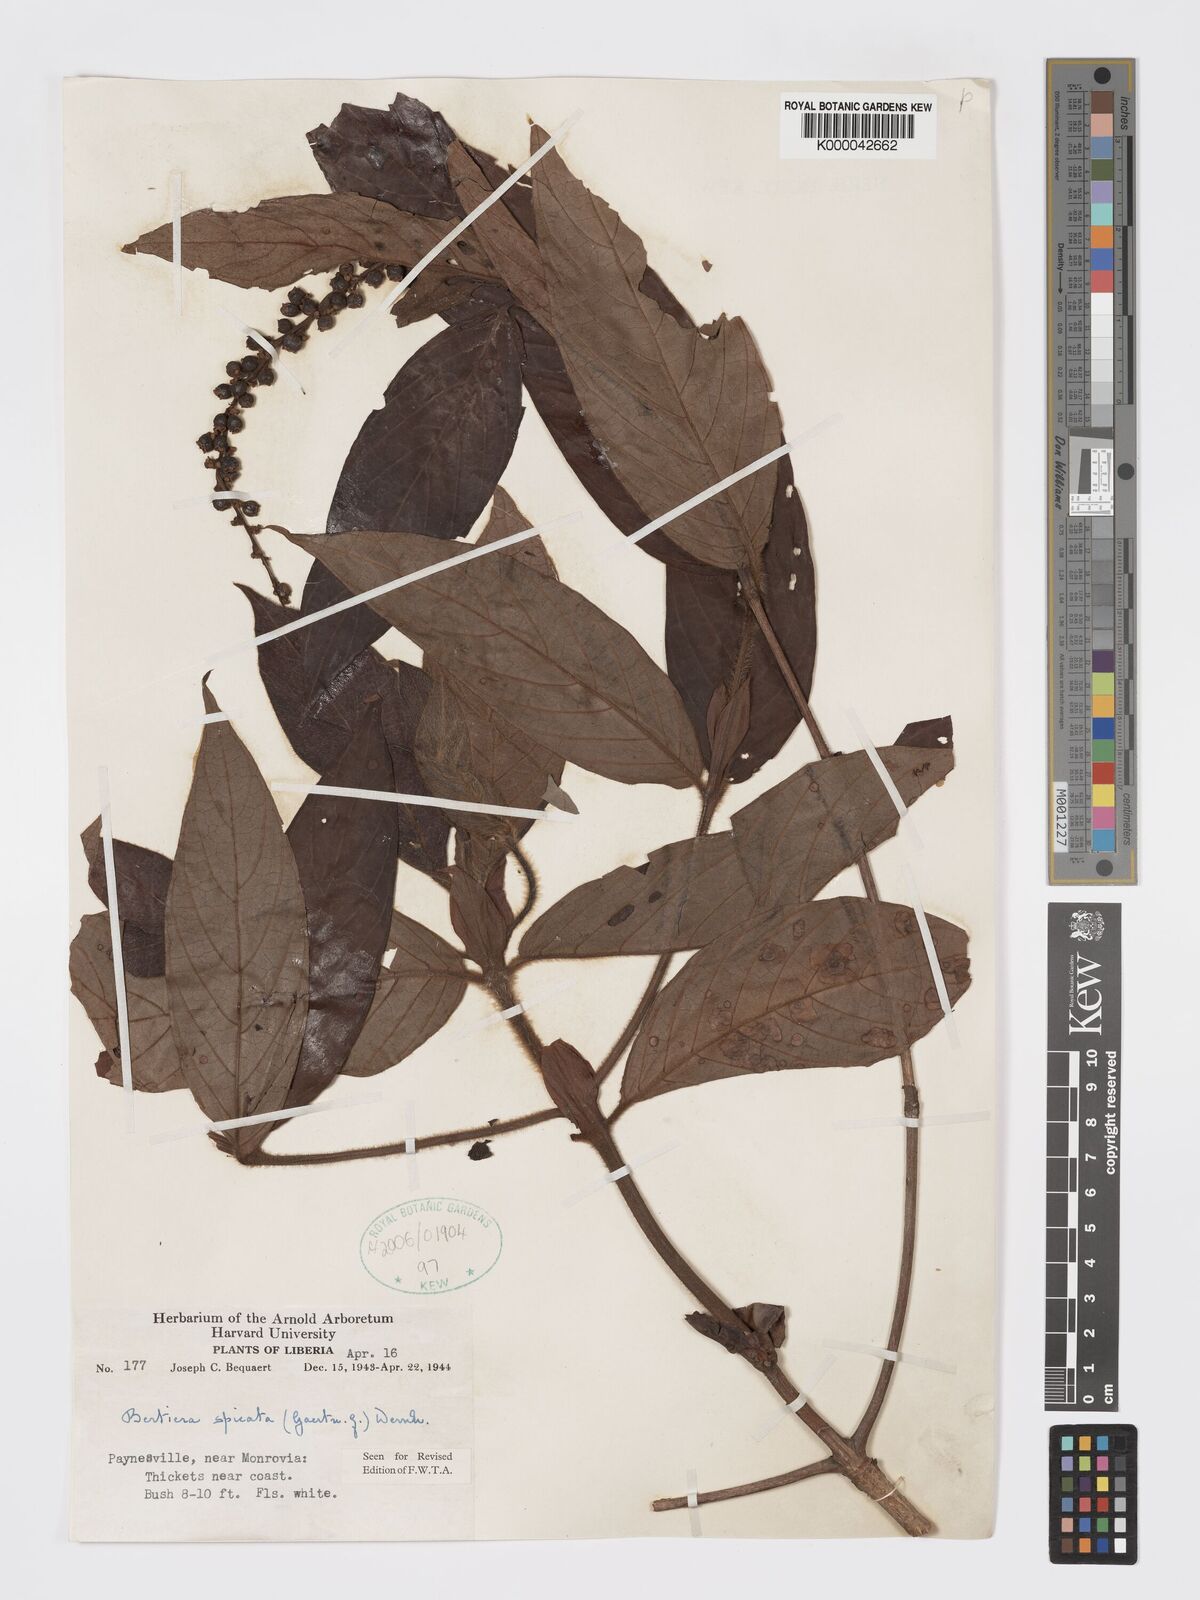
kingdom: Plantae
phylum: Tracheophyta
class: Magnoliopsida
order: Gentianales
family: Rubiaceae
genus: Bertiera
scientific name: Bertiera
